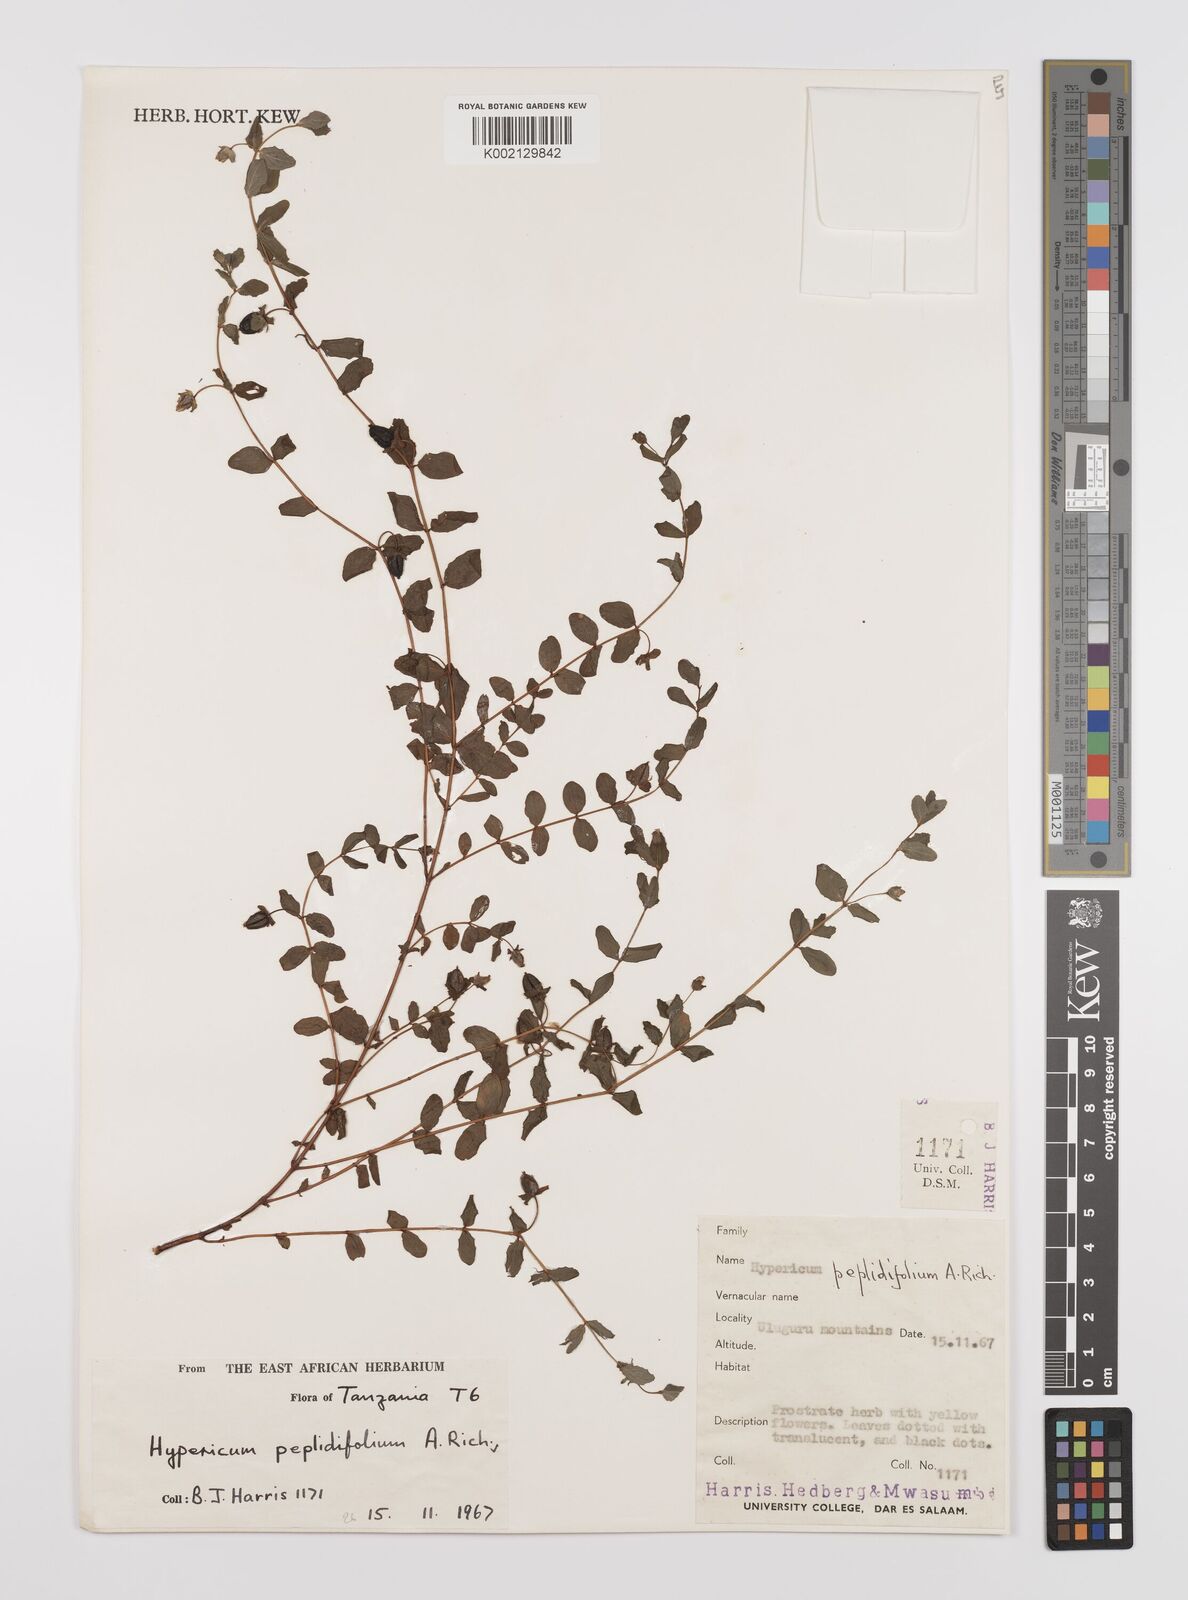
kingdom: Plantae
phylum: Tracheophyta
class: Magnoliopsida
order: Malpighiales
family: Hypericaceae
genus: Hypericum
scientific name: Hypericum peplidifolium
